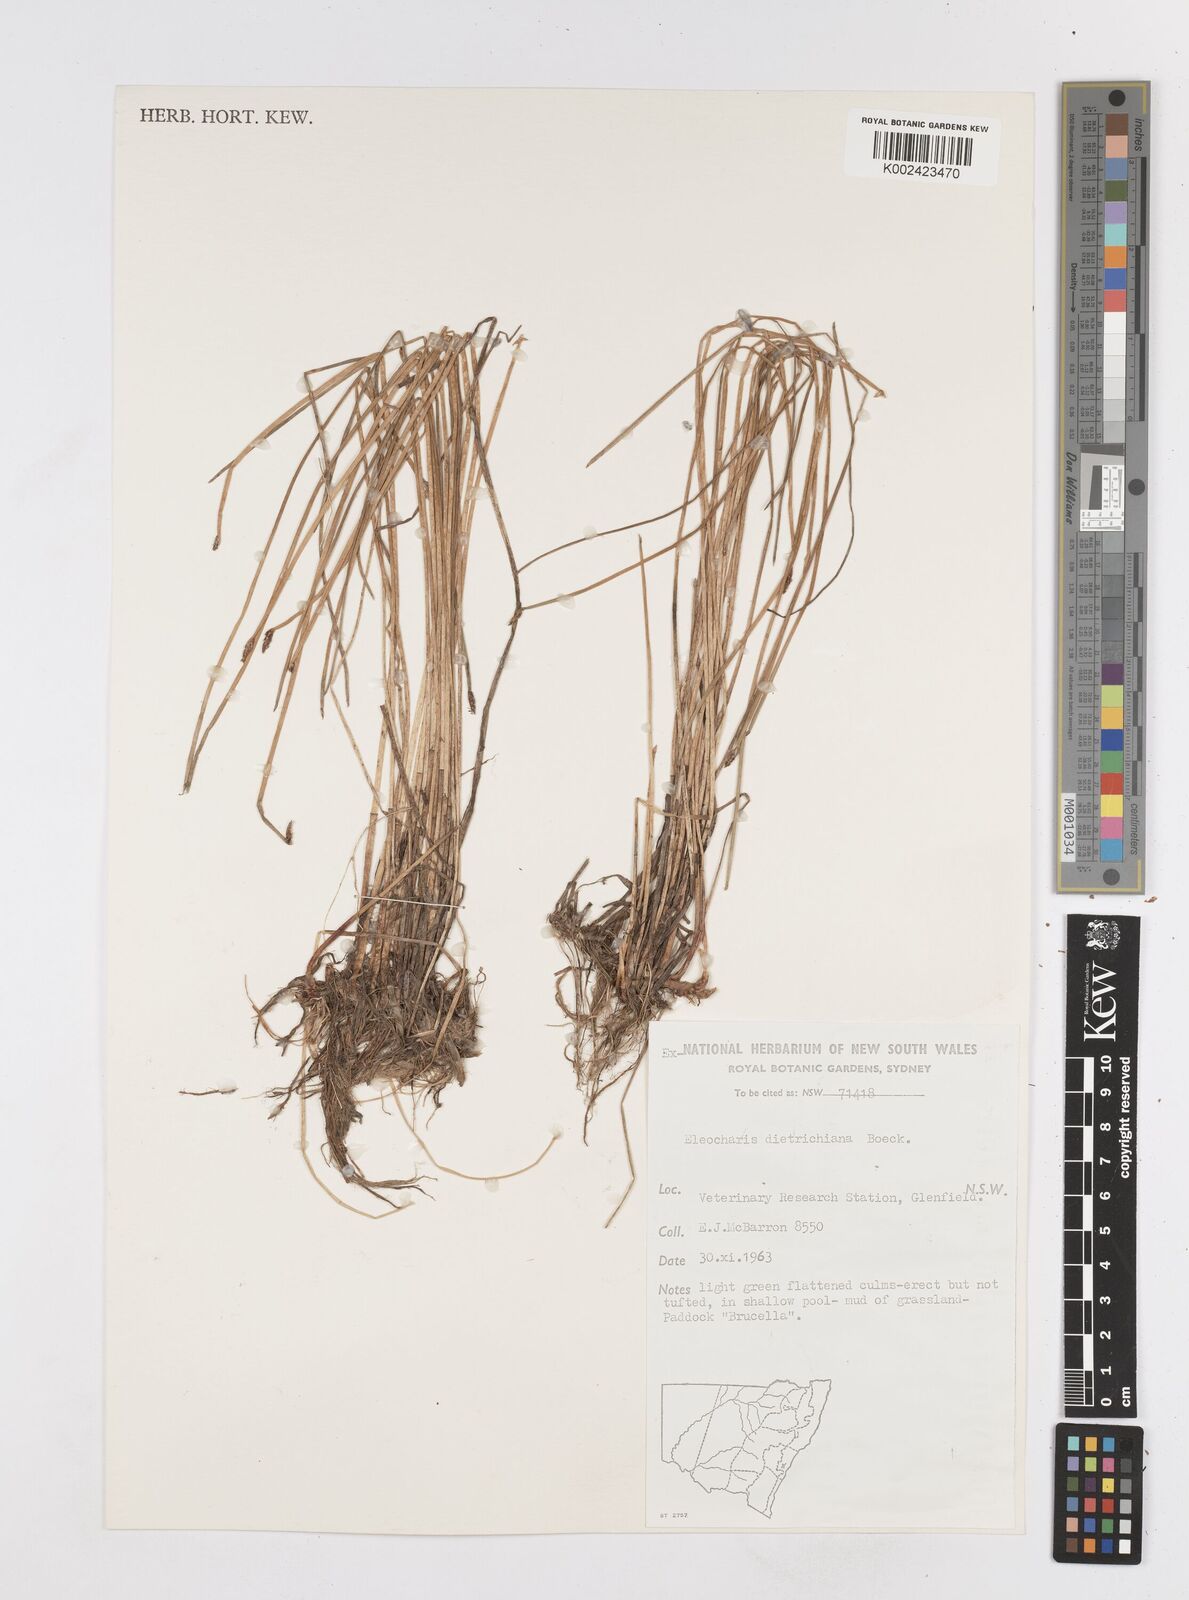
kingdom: Plantae
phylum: Tracheophyta
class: Liliopsida
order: Poales
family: Cyperaceae
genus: Eleocharis
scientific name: Eleocharis dietrichiana
